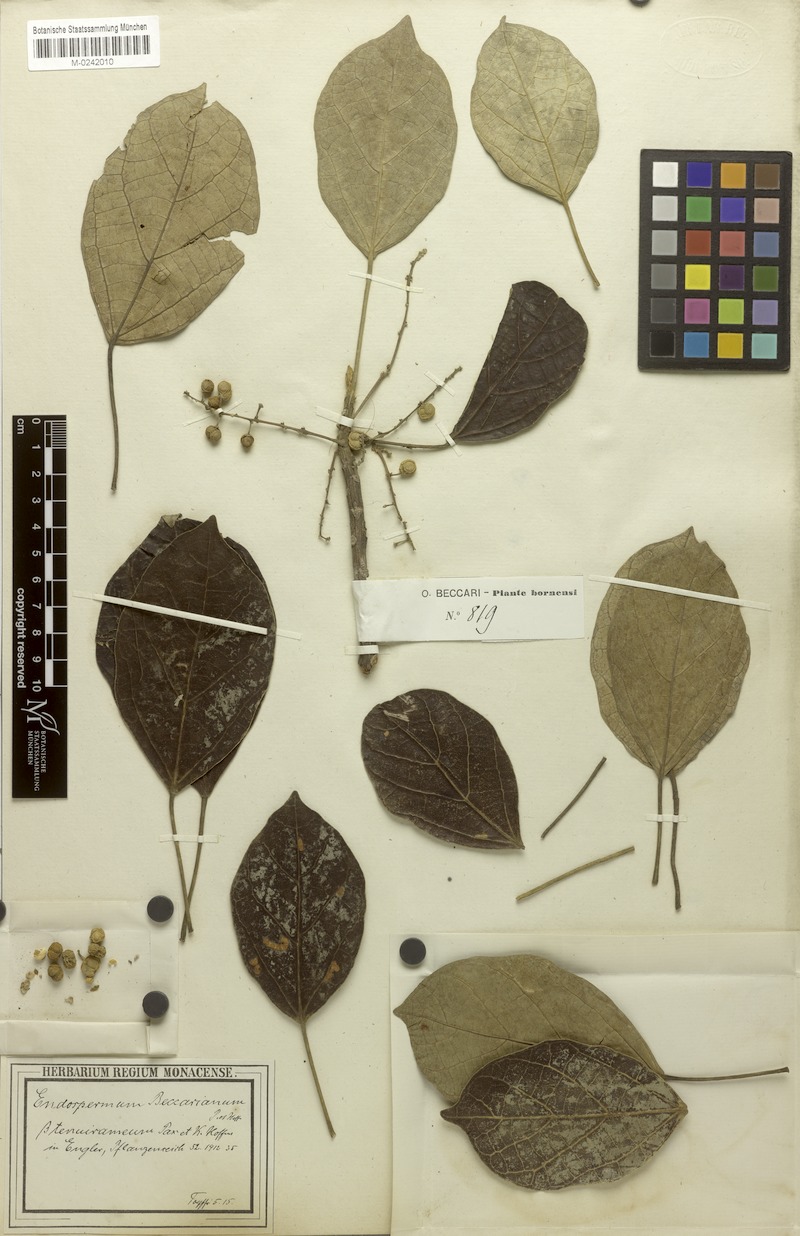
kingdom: Plantae
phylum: Tracheophyta
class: Magnoliopsida
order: Malpighiales
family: Euphorbiaceae
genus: Endospermum
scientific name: Endospermum diadenum
